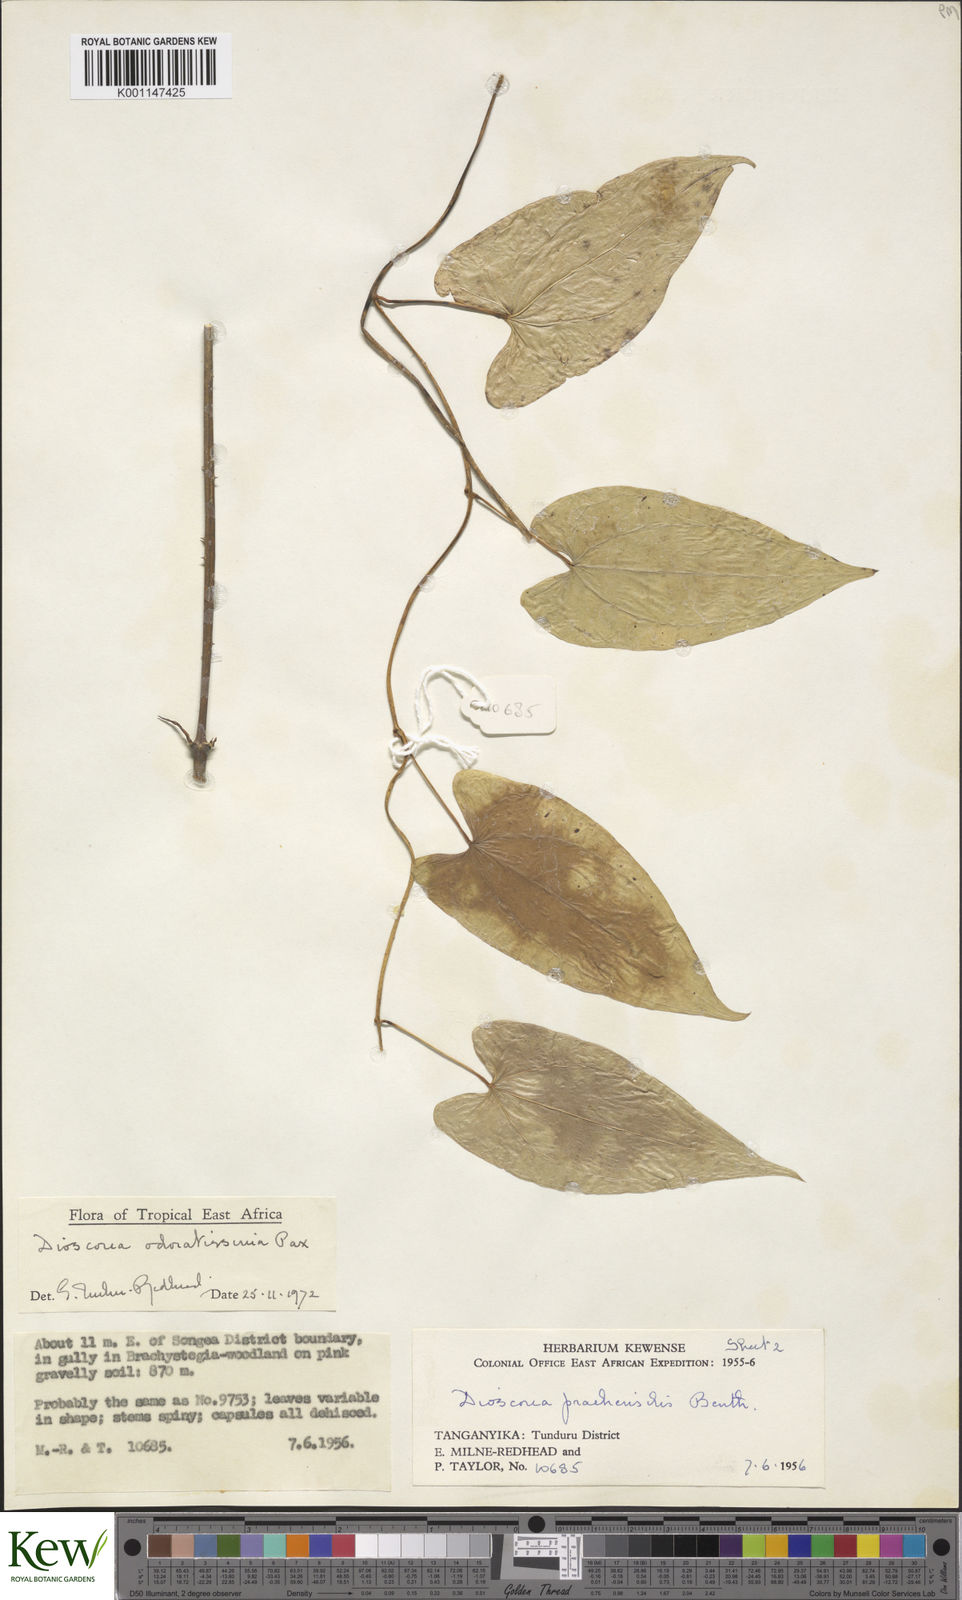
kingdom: Plantae
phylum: Tracheophyta
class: Liliopsida
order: Dioscoreales
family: Dioscoreaceae
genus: Dioscorea
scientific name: Dioscorea praehensilis
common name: Bush yam
